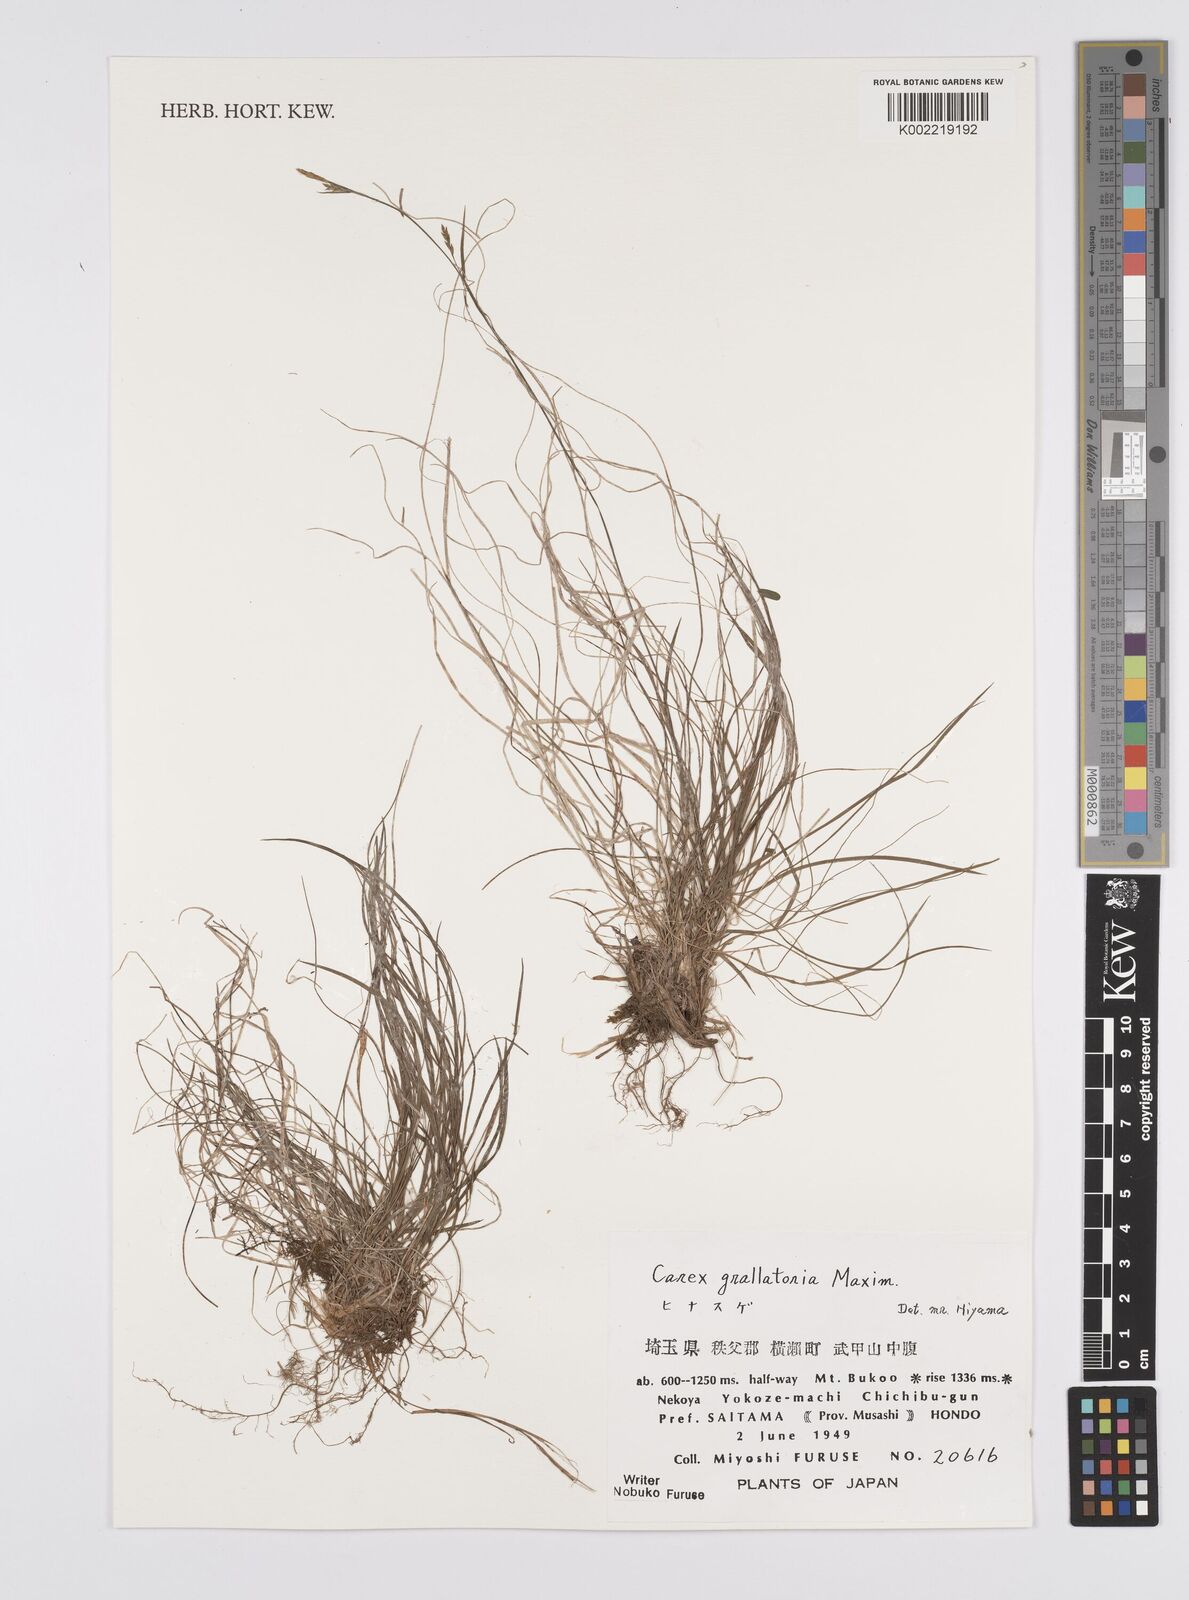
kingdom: Plantae
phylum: Tracheophyta
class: Liliopsida
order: Poales
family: Cyperaceae
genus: Carex
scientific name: Carex grallatoria
